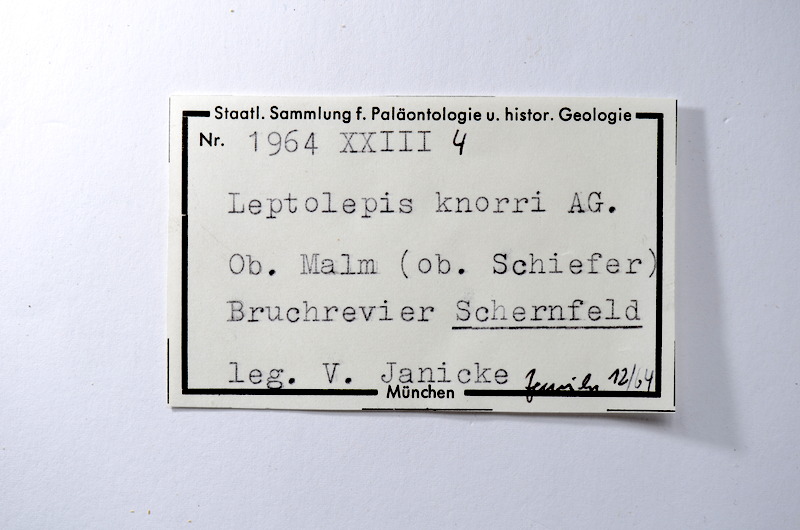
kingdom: Animalia
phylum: Chordata
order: Elopiformes
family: Anaethalionidae
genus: Anaethalion
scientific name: Anaethalion knorri
